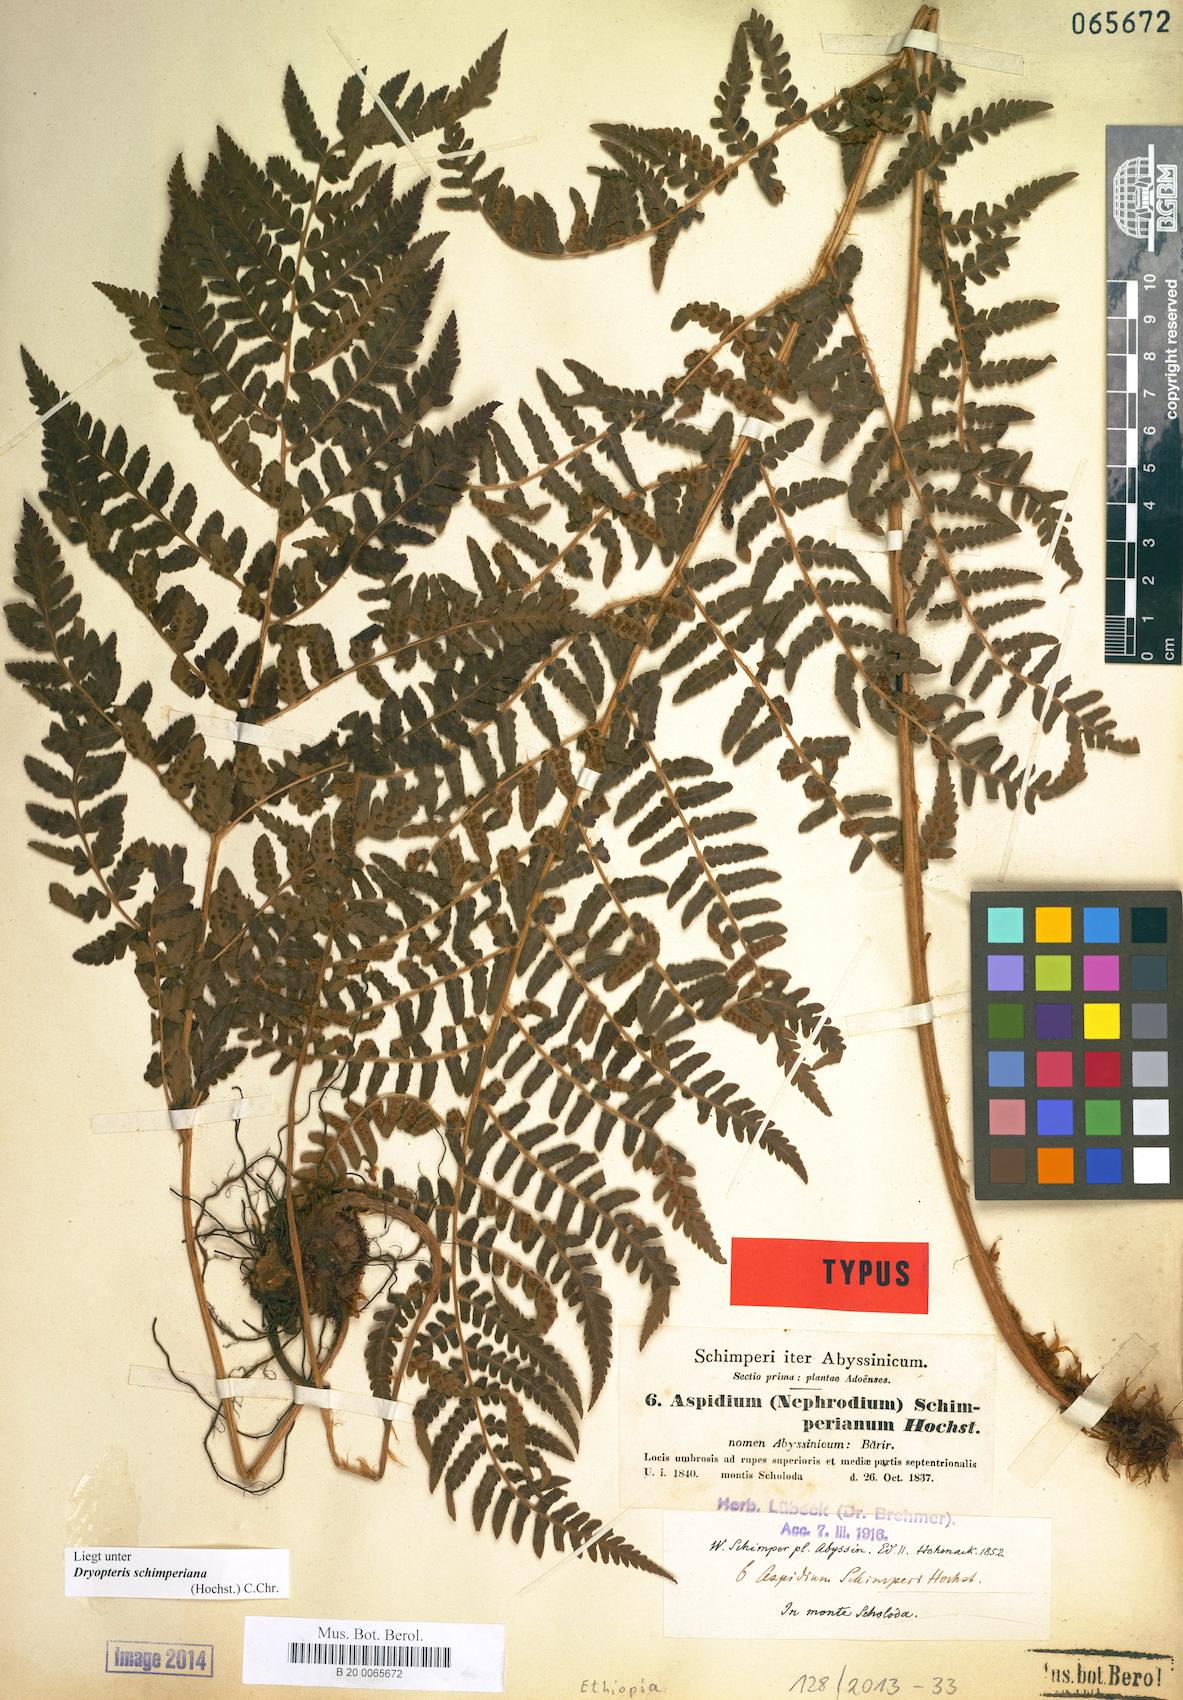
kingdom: Plantae
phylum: Tracheophyta
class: Polypodiopsida
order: Polypodiales
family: Dryopteridaceae
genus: Dryopteris
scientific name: Dryopteris schimperiana
